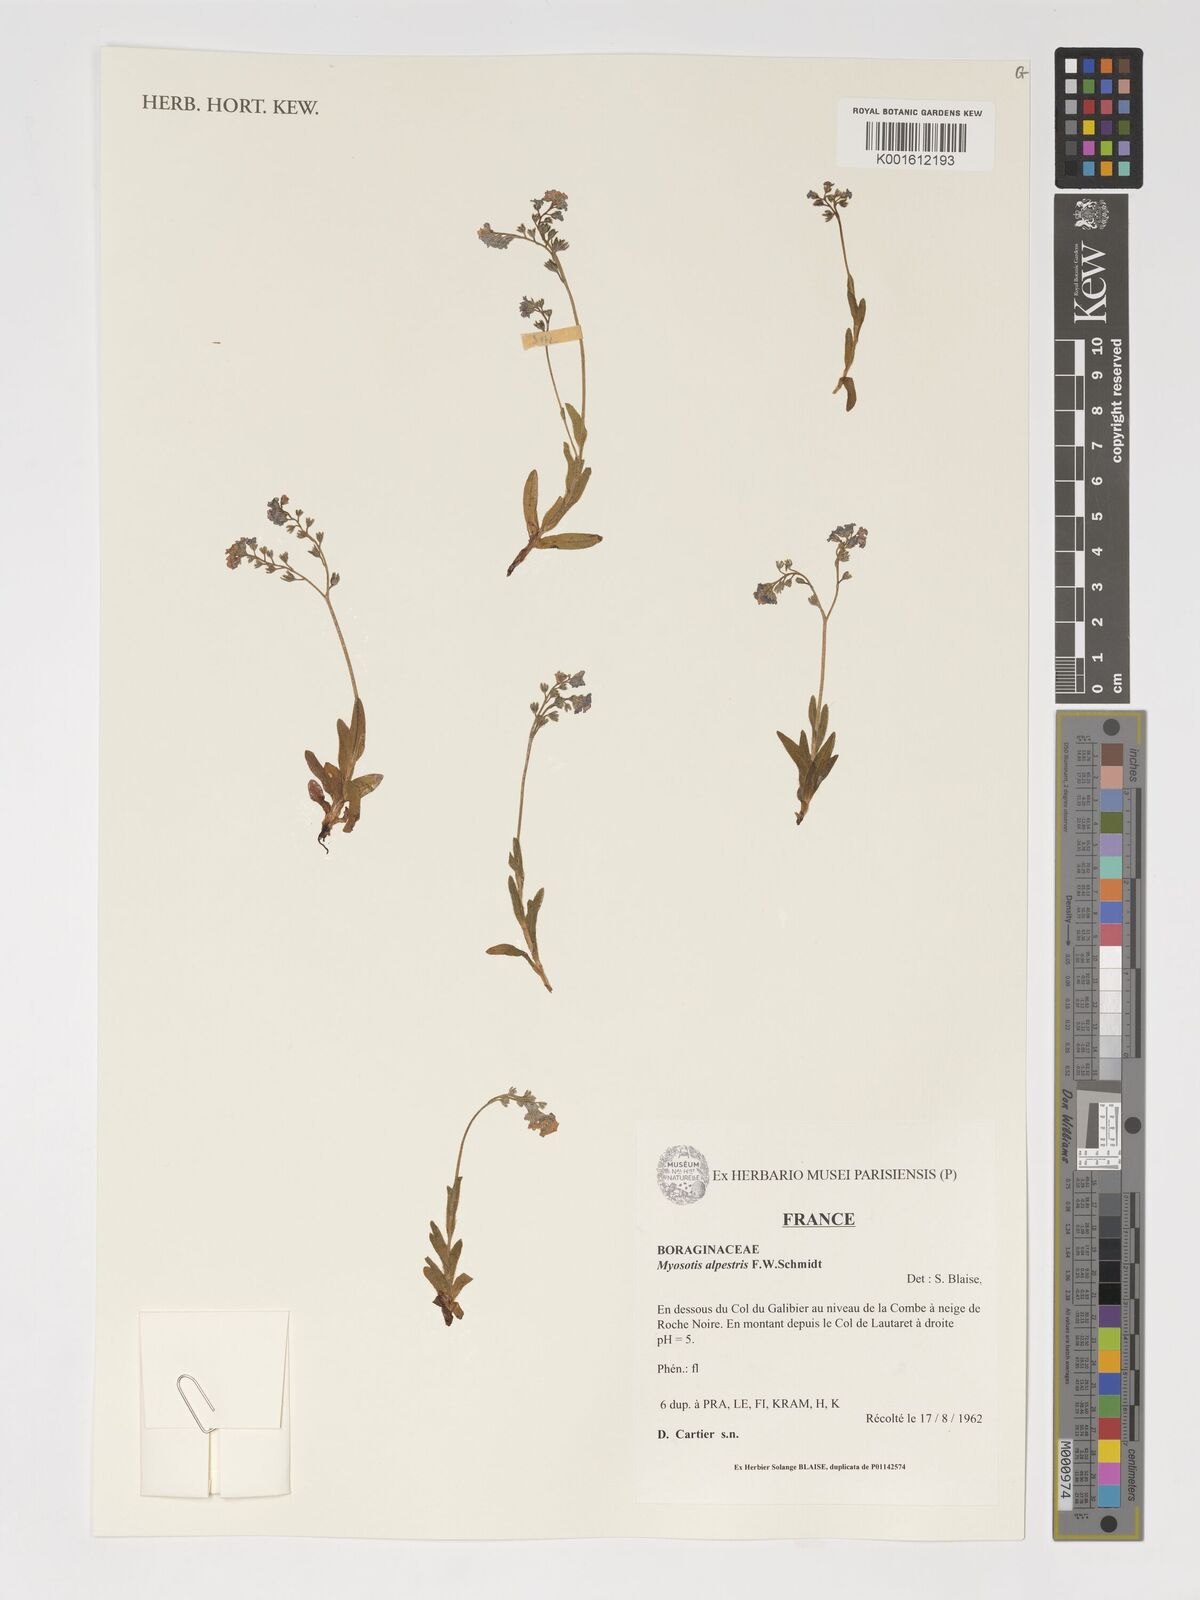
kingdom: Plantae
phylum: Tracheophyta
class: Magnoliopsida
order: Boraginales
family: Boraginaceae
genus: Myosotis
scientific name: Myosotis alpestris
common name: Alpine forget-me-not
